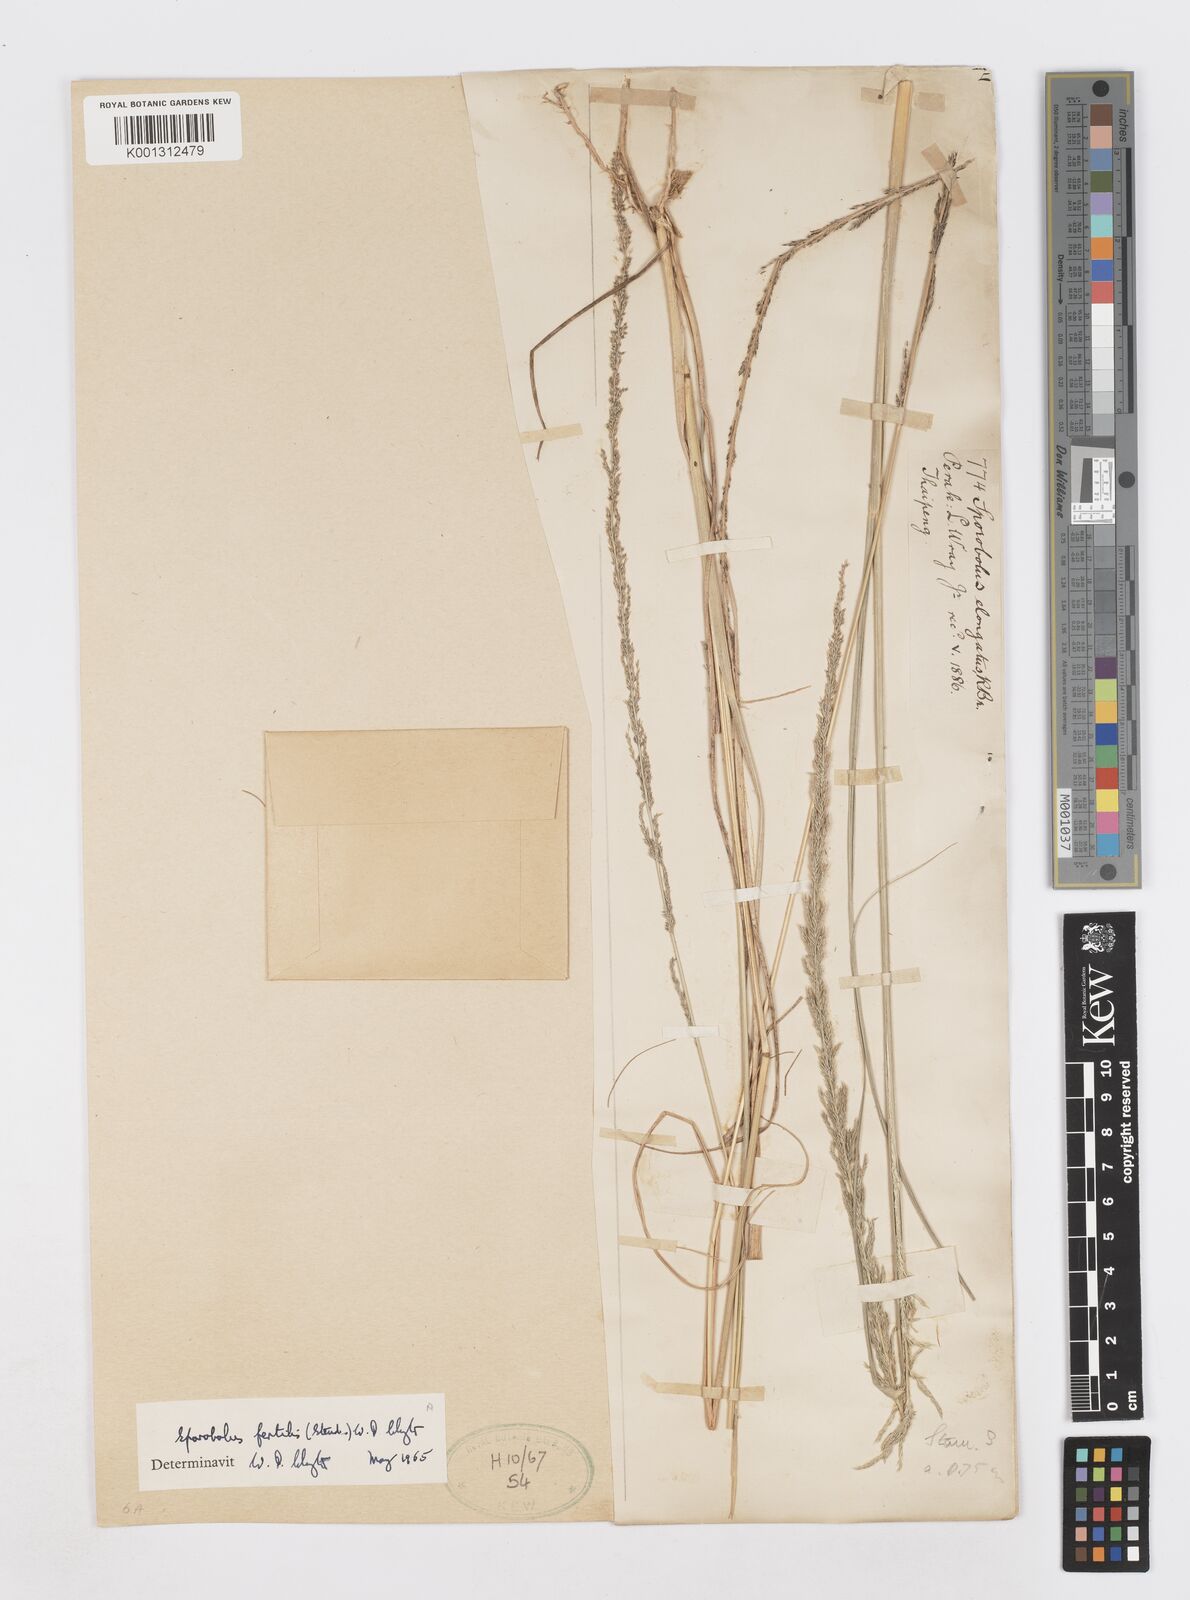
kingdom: Plantae
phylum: Tracheophyta
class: Liliopsida
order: Poales
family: Poaceae
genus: Sporobolus
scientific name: Sporobolus fertilis
